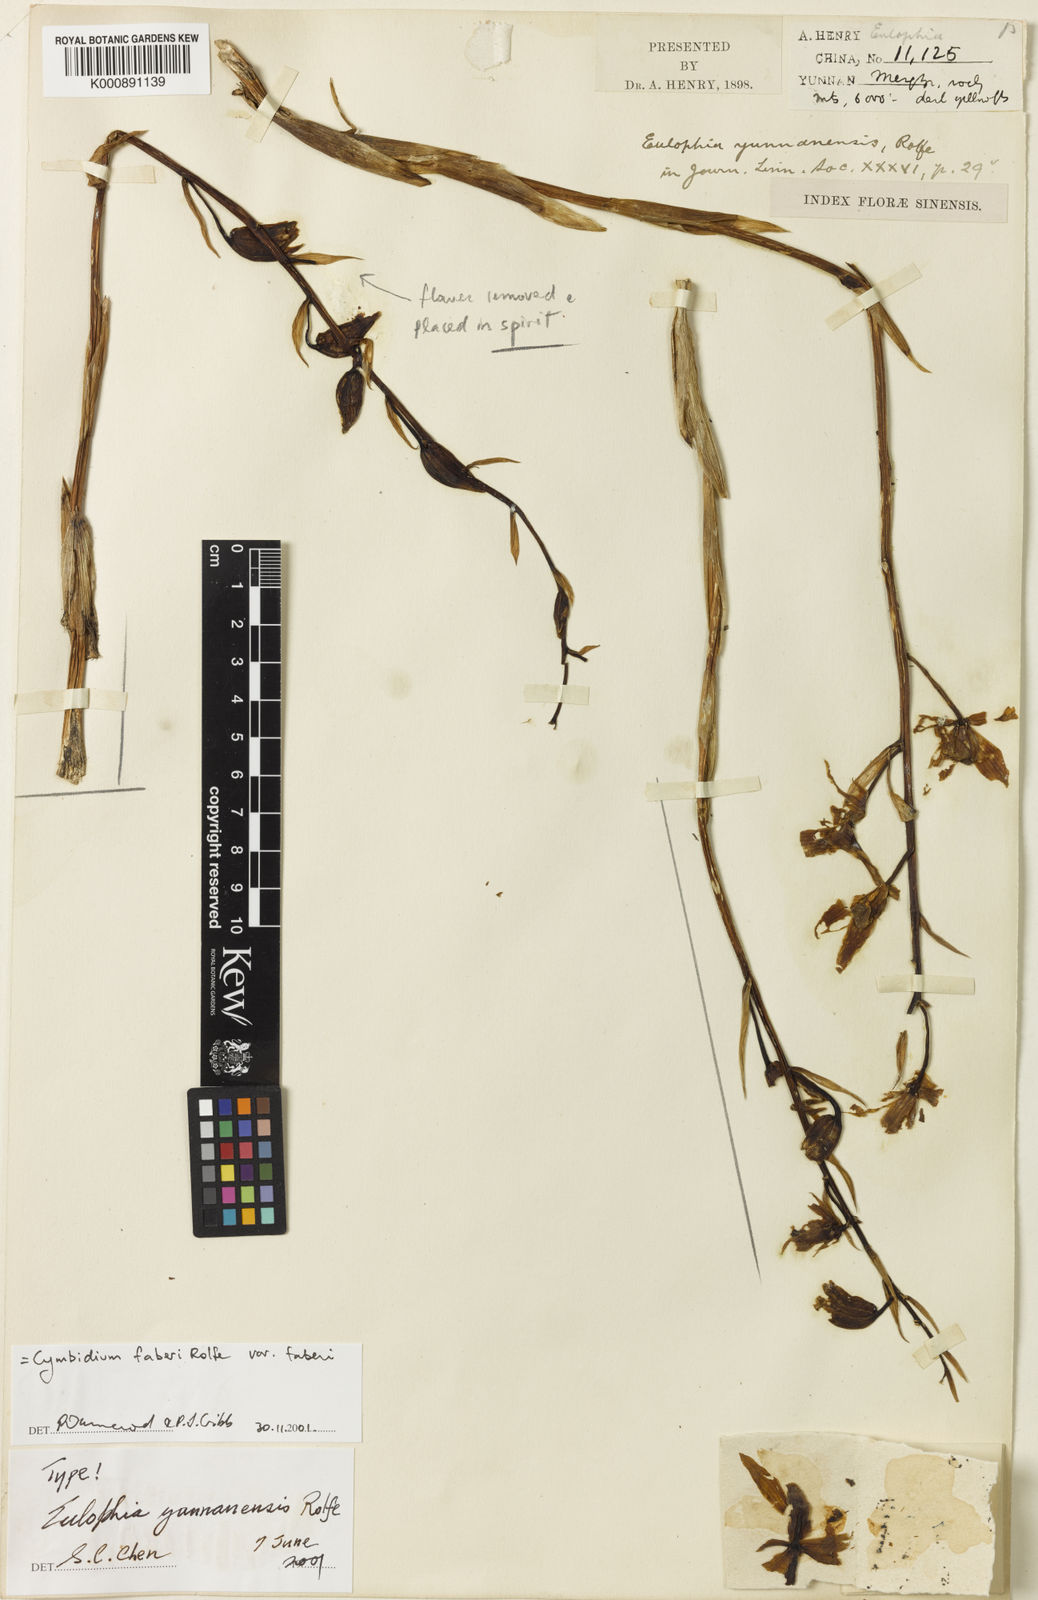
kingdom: Plantae
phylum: Tracheophyta
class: Liliopsida
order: Asparagales
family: Orchidaceae
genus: Cymbidium
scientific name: Cymbidium faberi
